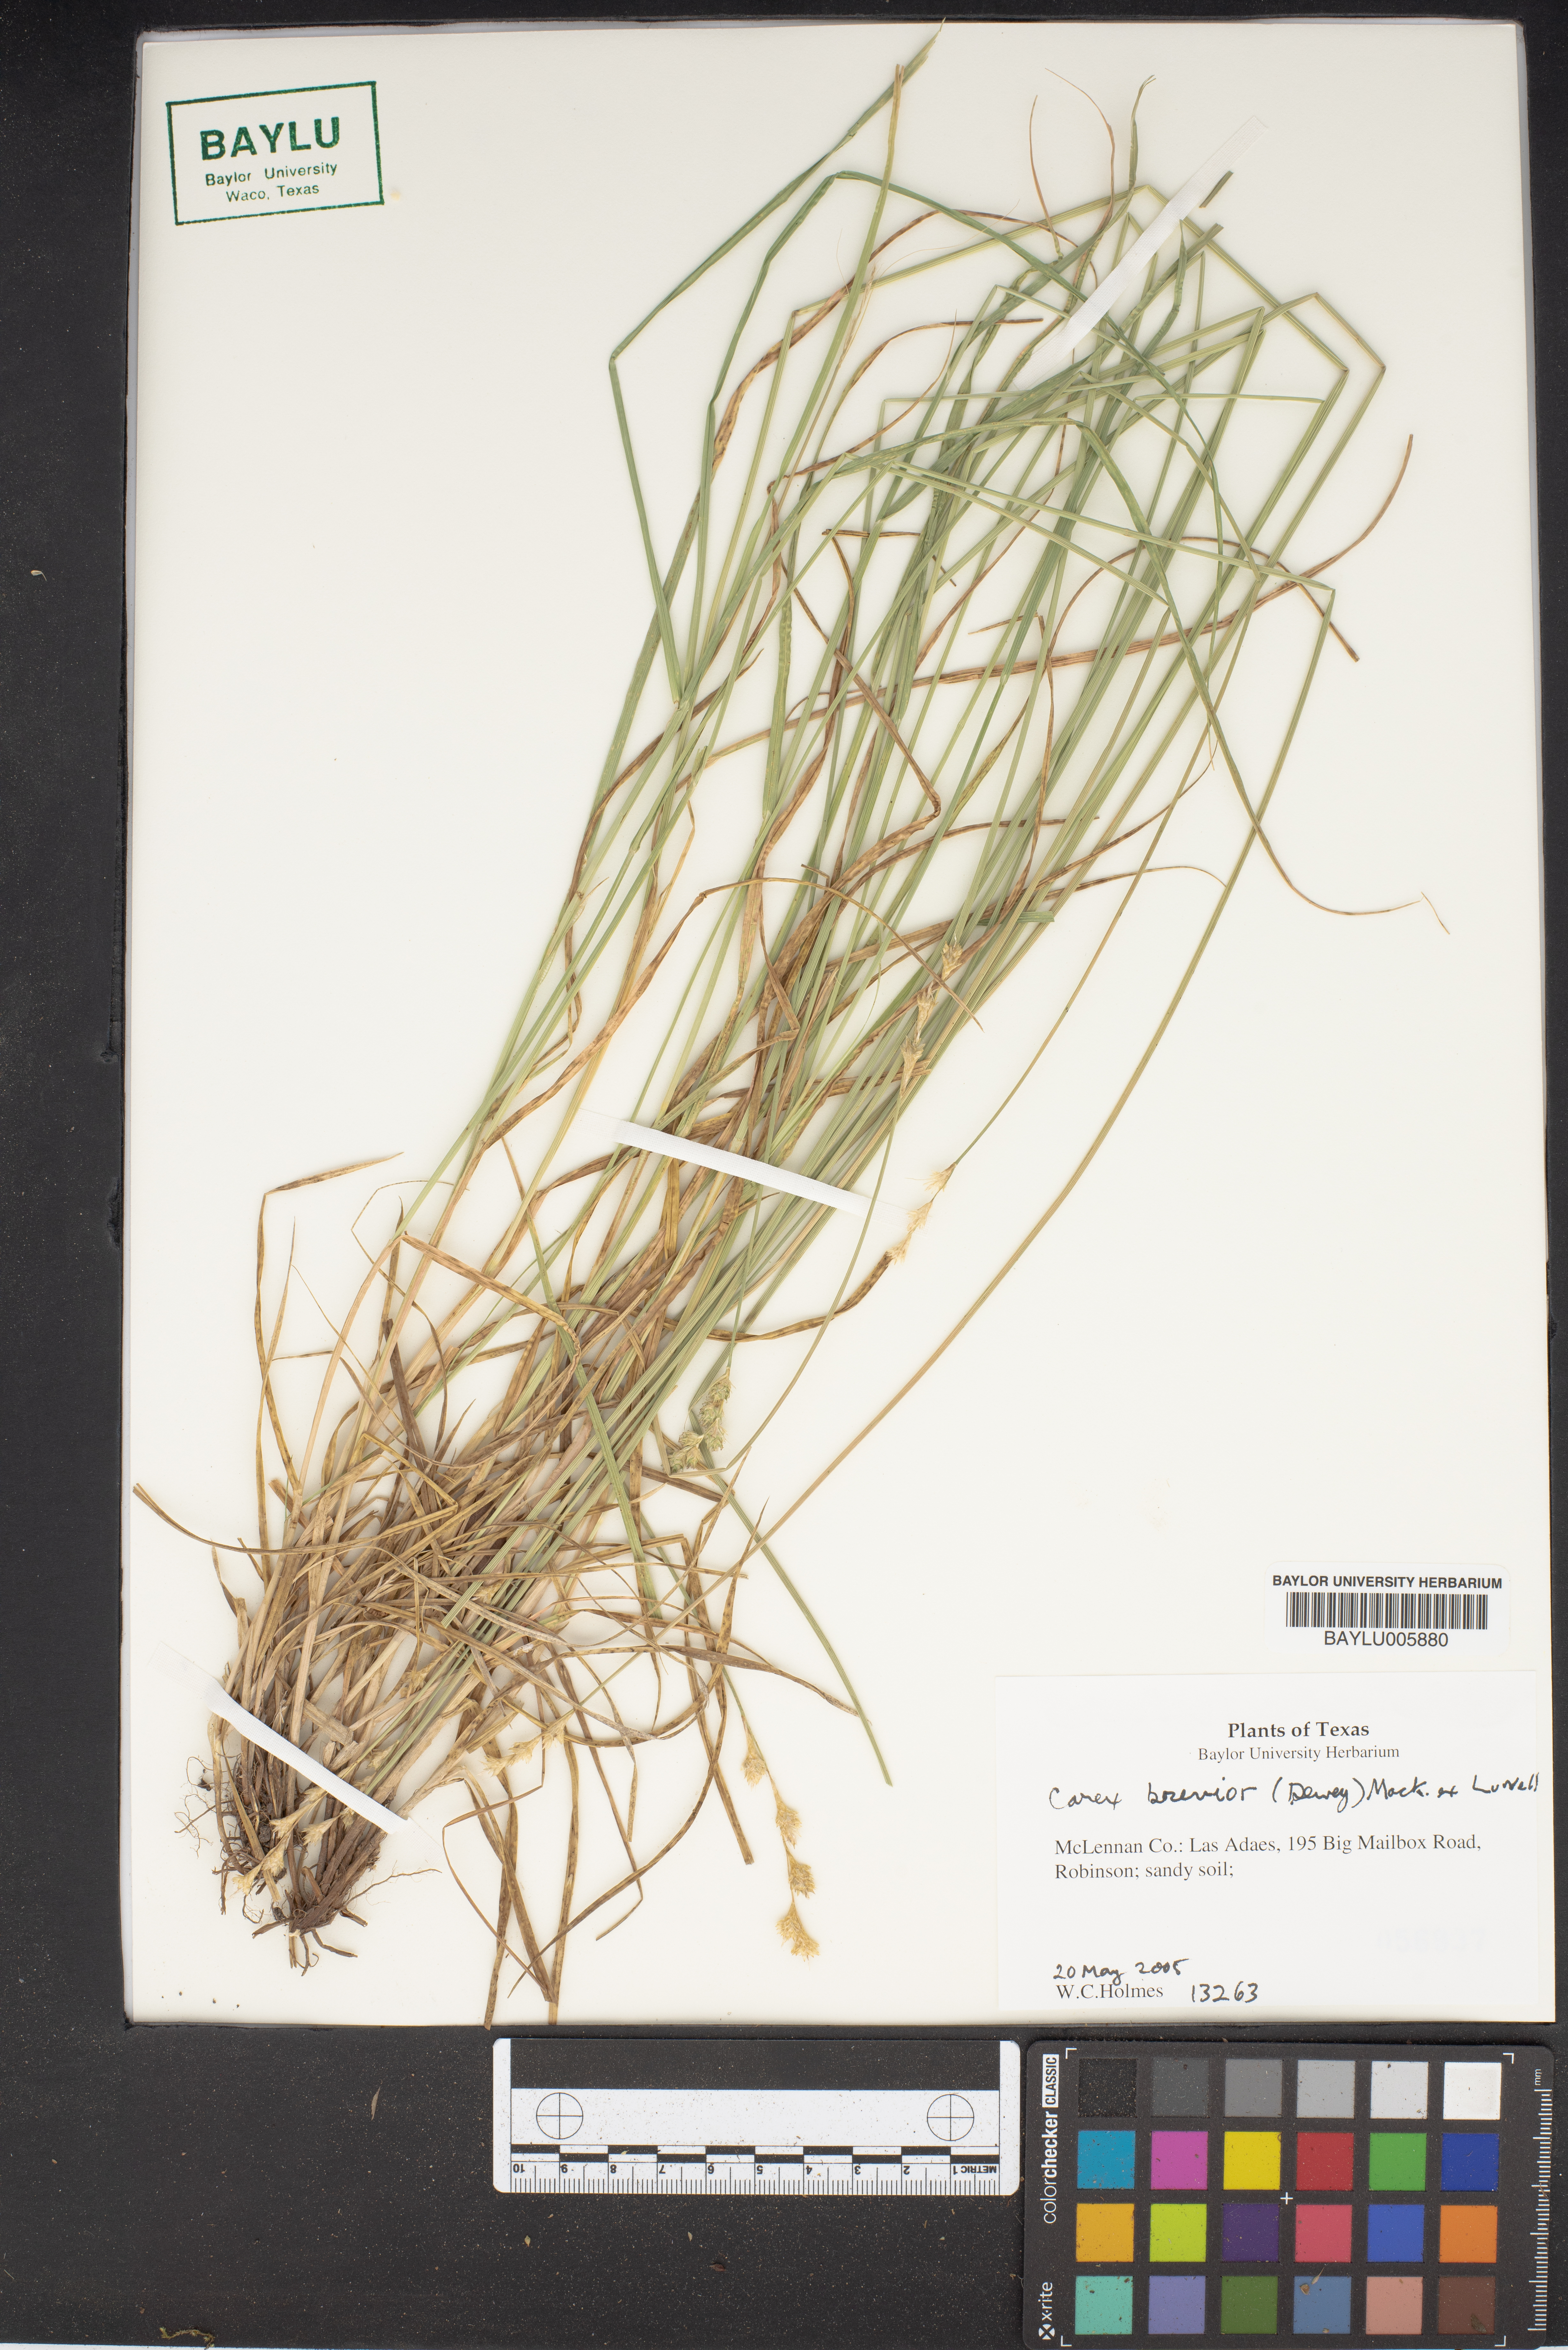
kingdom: Plantae
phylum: Tracheophyta
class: Liliopsida
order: Poales
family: Cyperaceae
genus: Carex
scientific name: Carex brevior
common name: Brevior sedge
